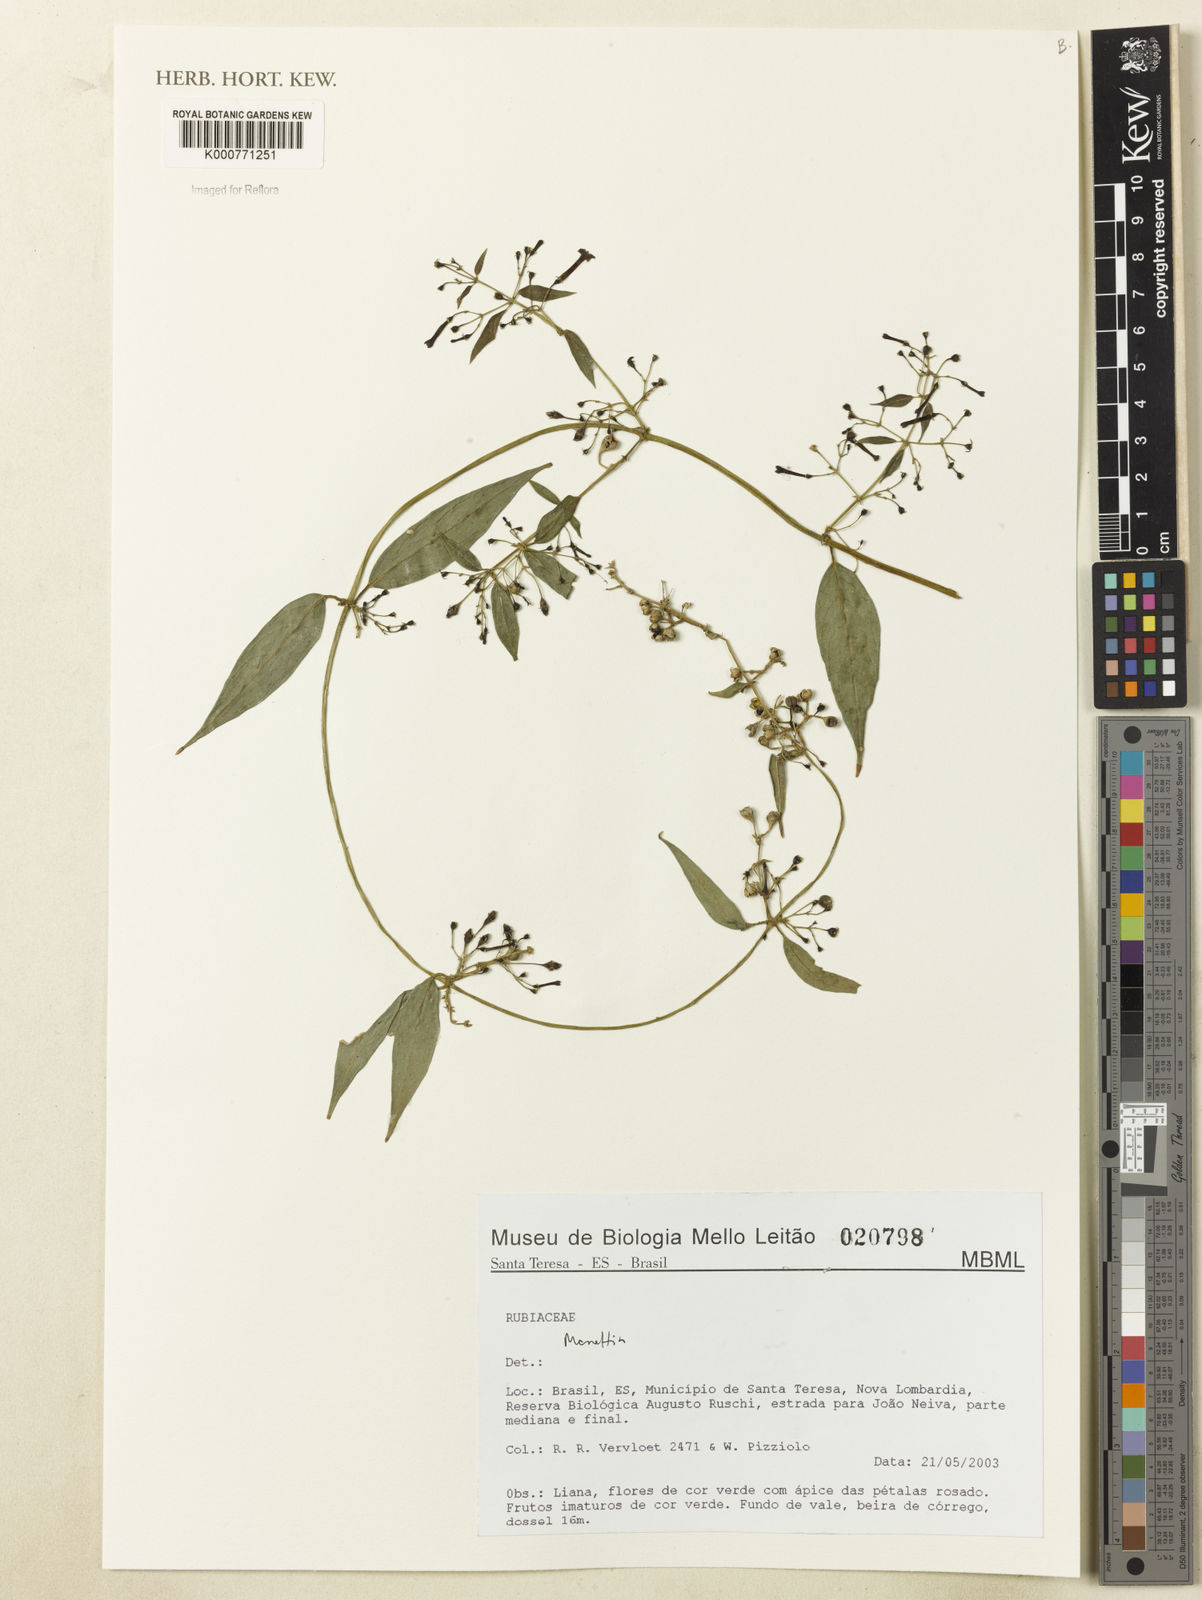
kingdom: Plantae
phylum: Tracheophyta
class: Magnoliopsida
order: Gentianales
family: Rubiaceae
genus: Manettia
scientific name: Manettia
